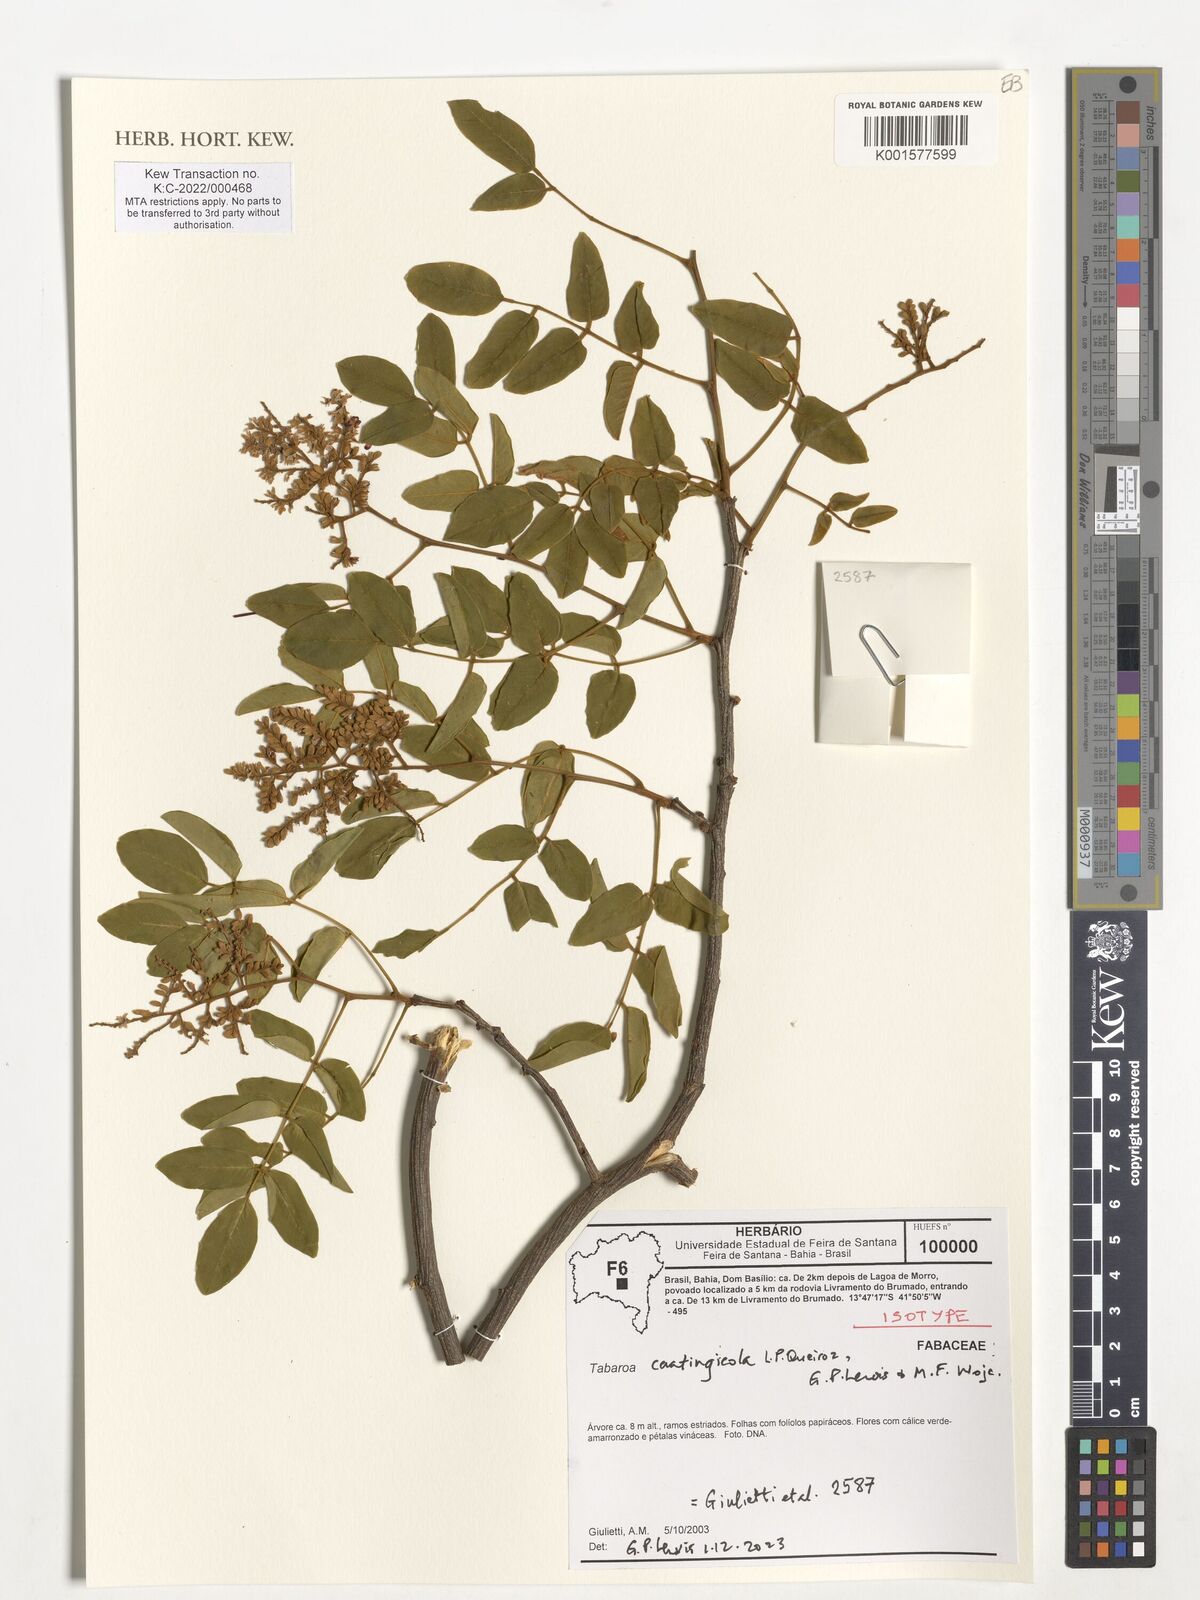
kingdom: Plantae
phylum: Tracheophyta
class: Magnoliopsida
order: Fabales
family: Fabaceae
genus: Tabaroa
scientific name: Tabaroa
